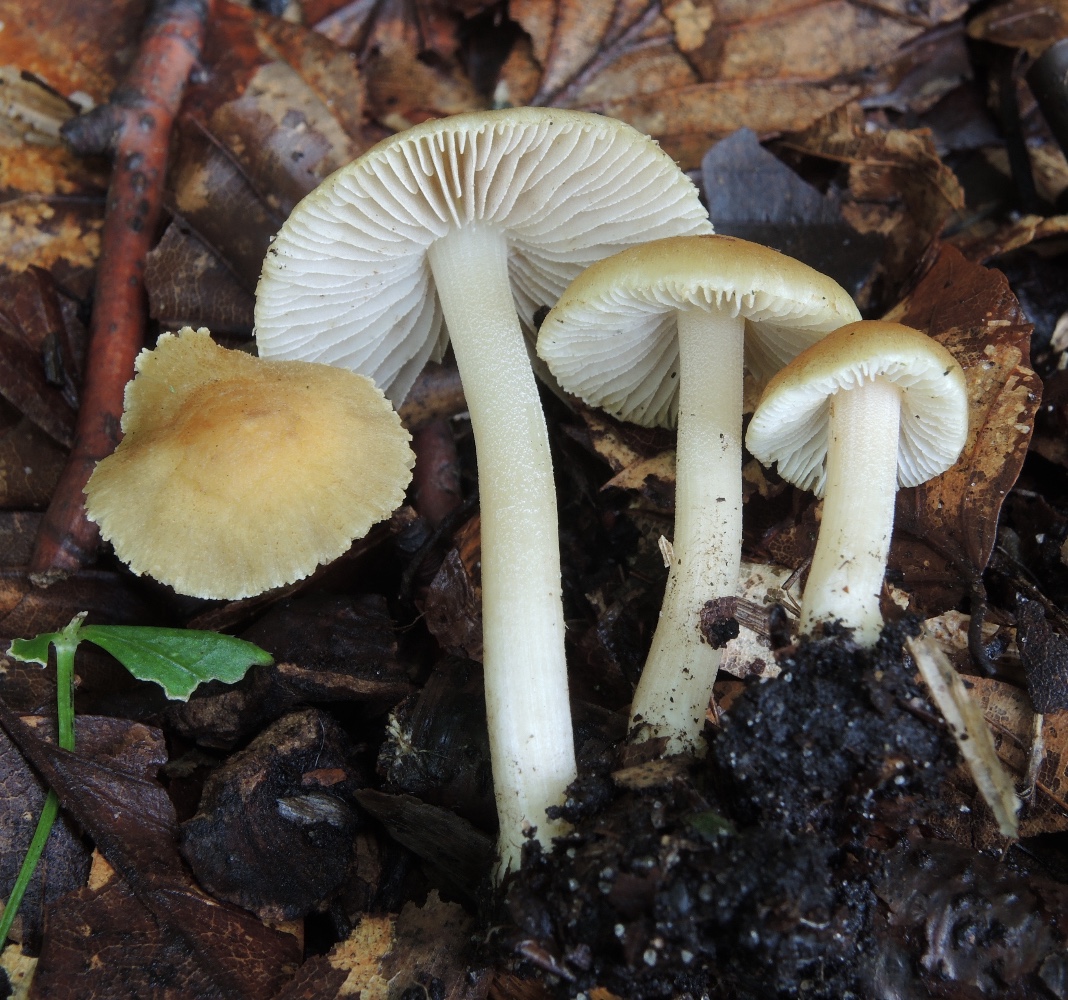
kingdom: Fungi
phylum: Basidiomycota
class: Agaricomycetes
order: Agaricales
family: Inocybaceae
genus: Inocybe
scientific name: Inocybe hirtella
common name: mandel-trævlhat
